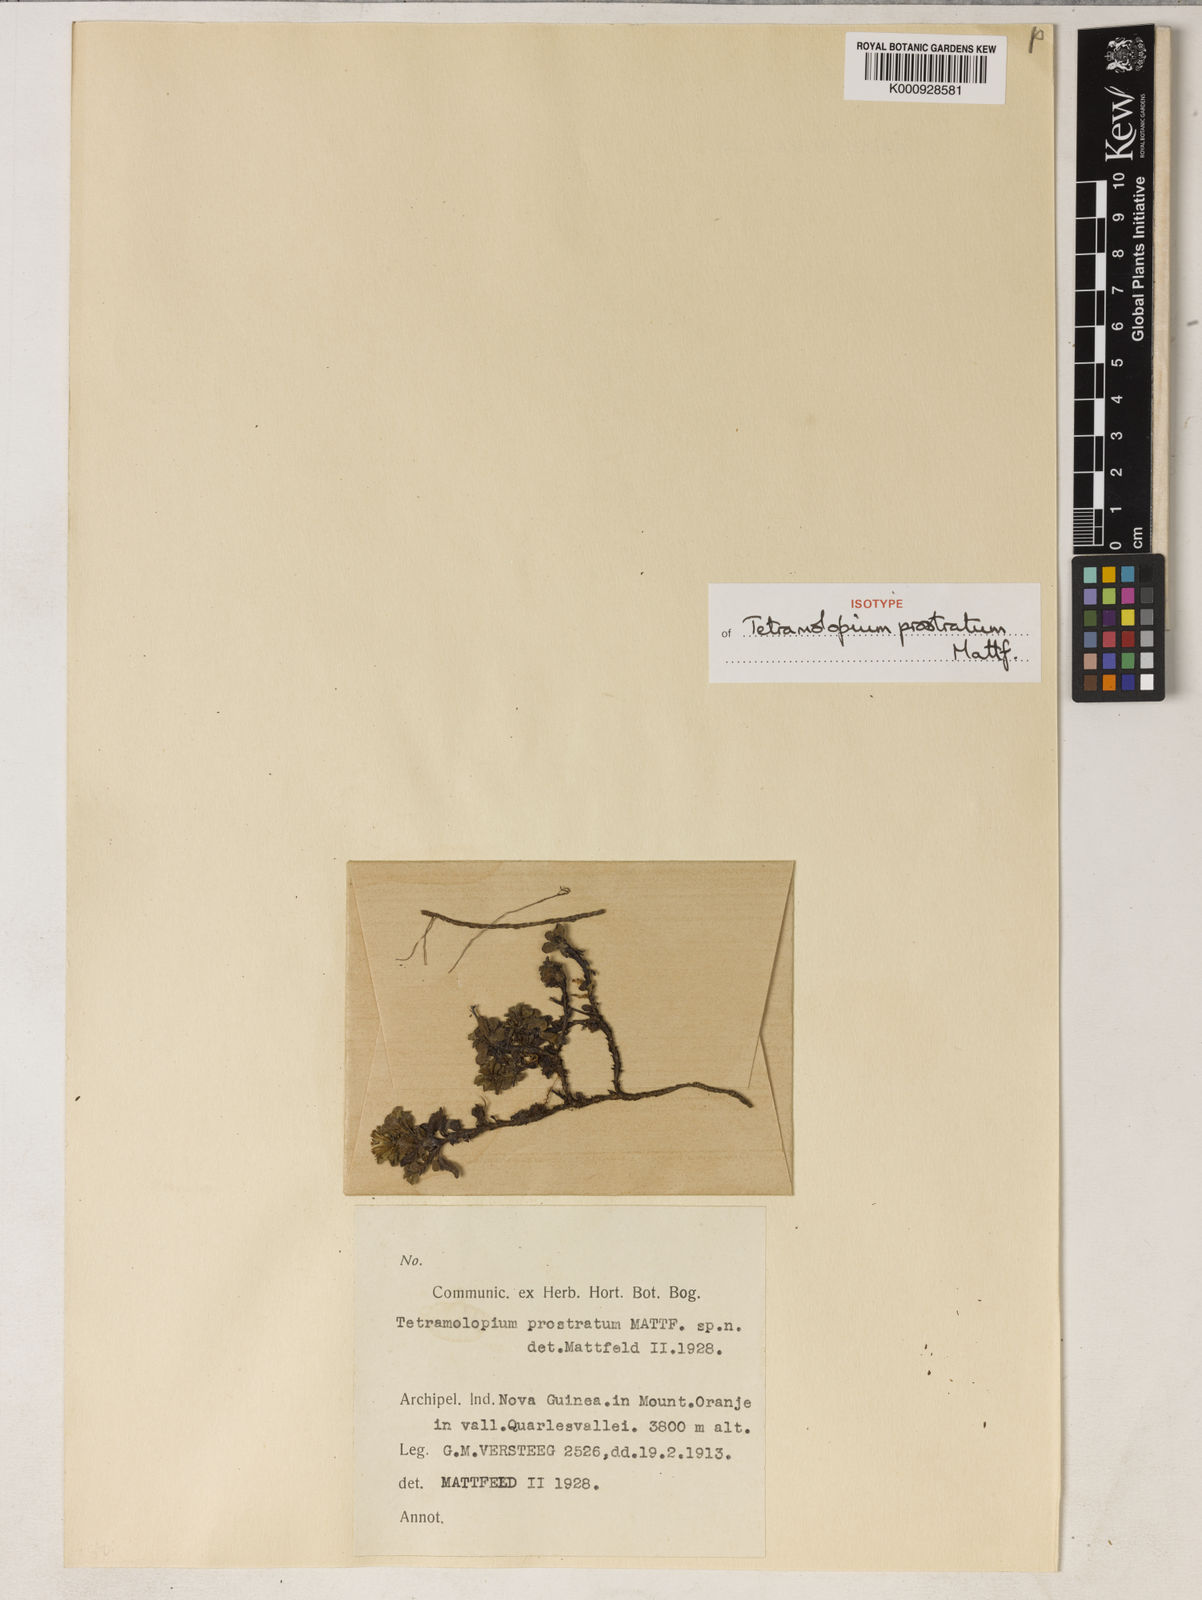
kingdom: Plantae
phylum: Tracheophyta
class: Magnoliopsida
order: Asterales
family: Asteraceae
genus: Tetramolopium
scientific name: Tetramolopium prostratum
